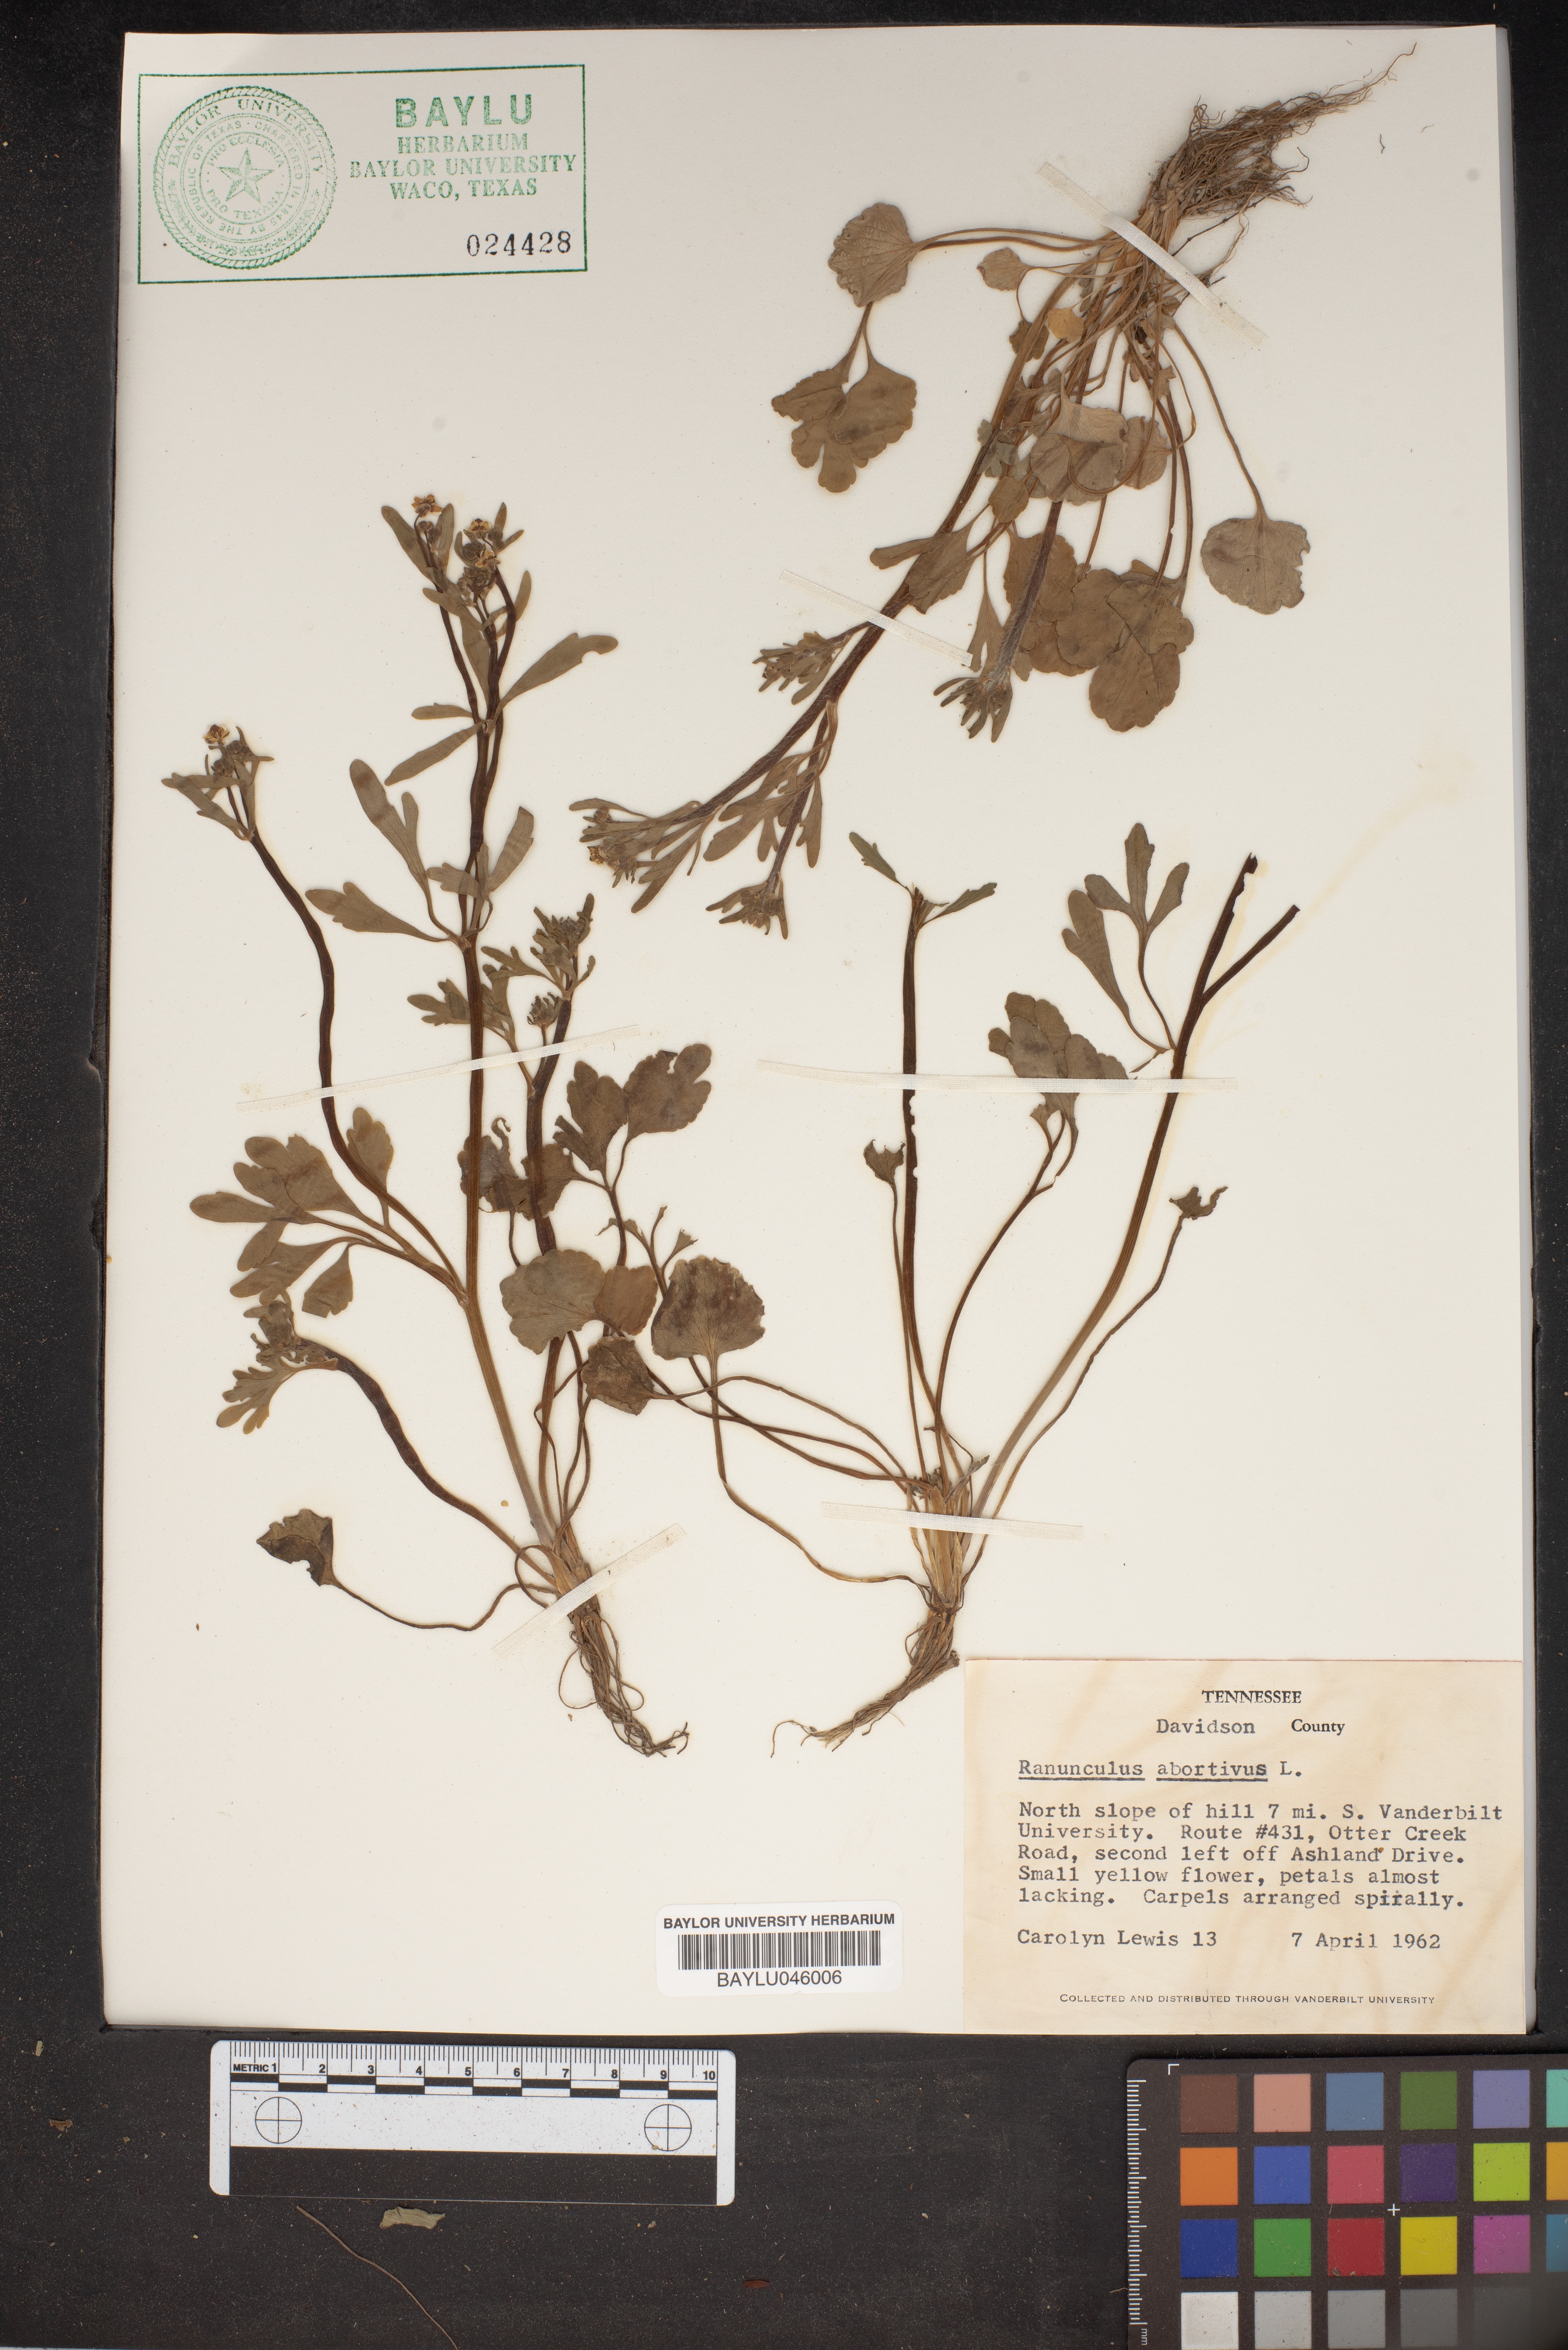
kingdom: Plantae
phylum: Tracheophyta
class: Magnoliopsida
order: Ranunculales
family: Ranunculaceae
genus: Ranunculus
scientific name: Ranunculus abortivus
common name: Early wood buttercup
